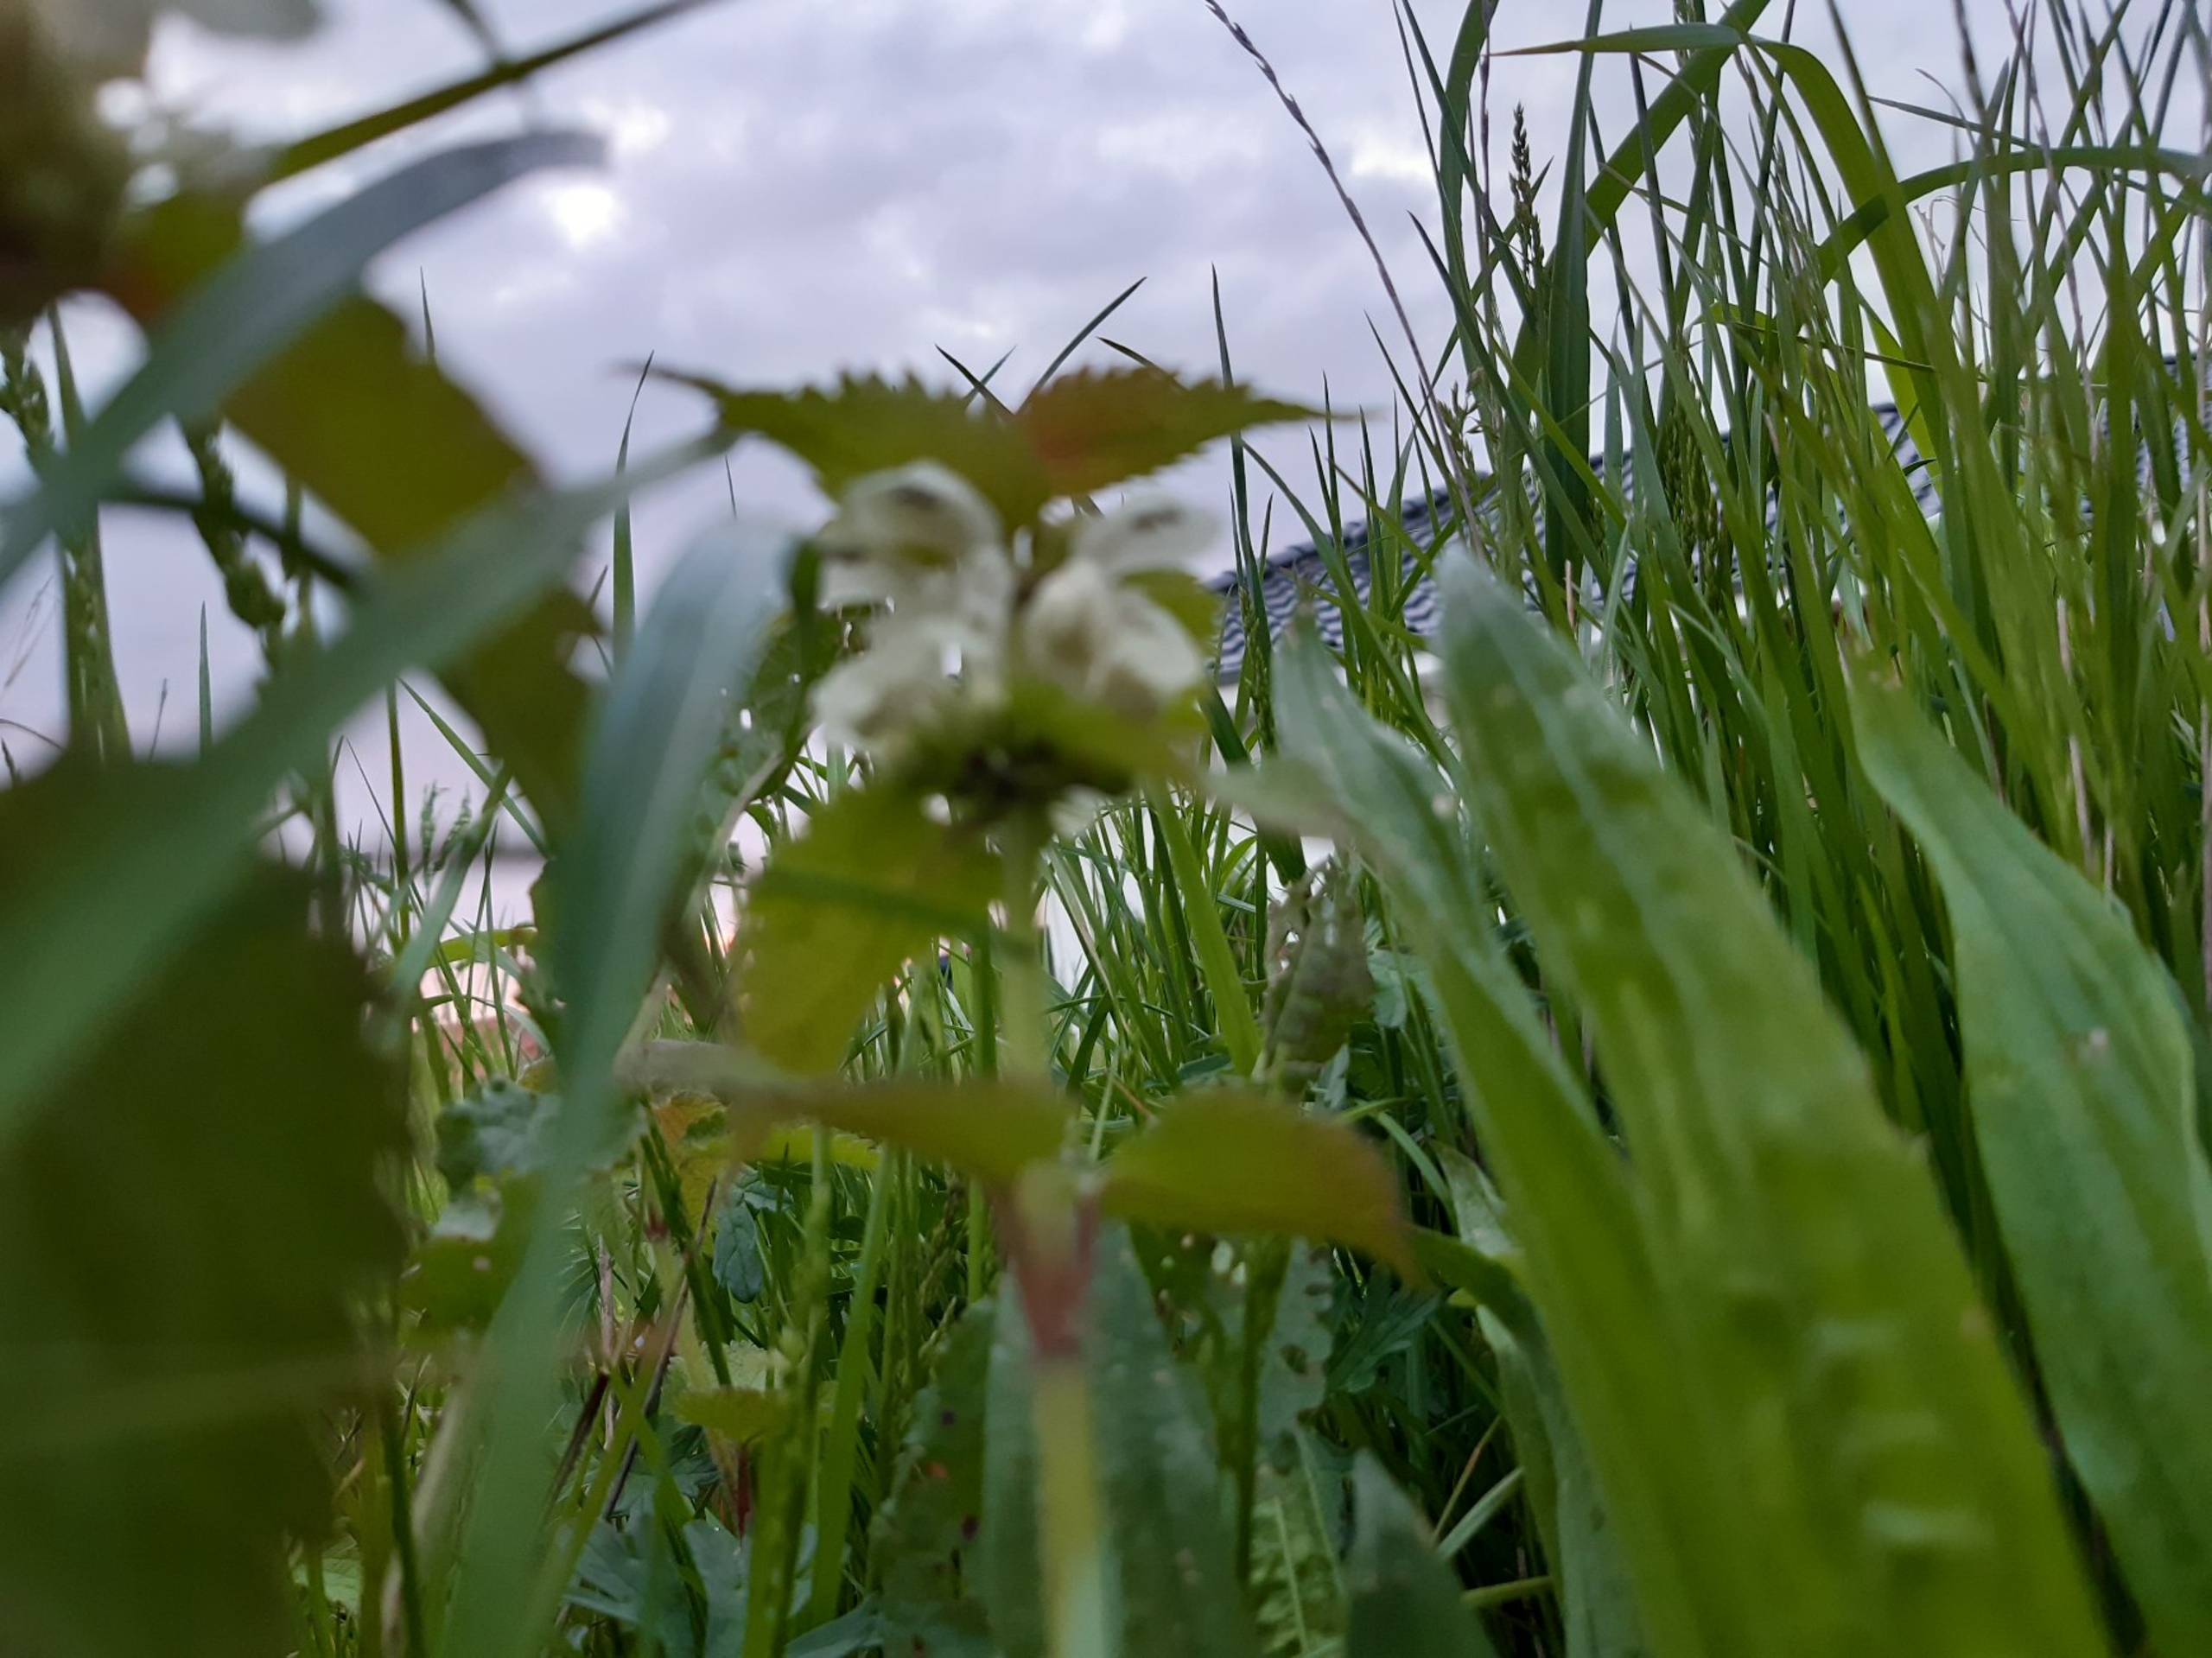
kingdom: Plantae
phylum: Tracheophyta
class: Magnoliopsida
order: Lamiales
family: Lamiaceae
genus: Lamium
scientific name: Lamium album
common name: Døvnælde
